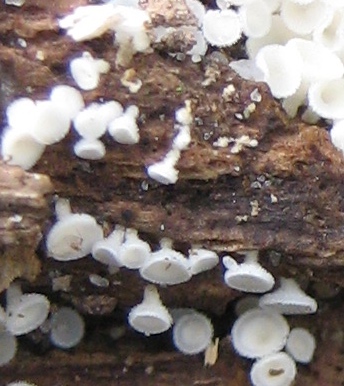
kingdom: Fungi
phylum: Ascomycota
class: Leotiomycetes
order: Helotiales
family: Lachnaceae
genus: Lachnum
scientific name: Lachnum
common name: frynseskive
